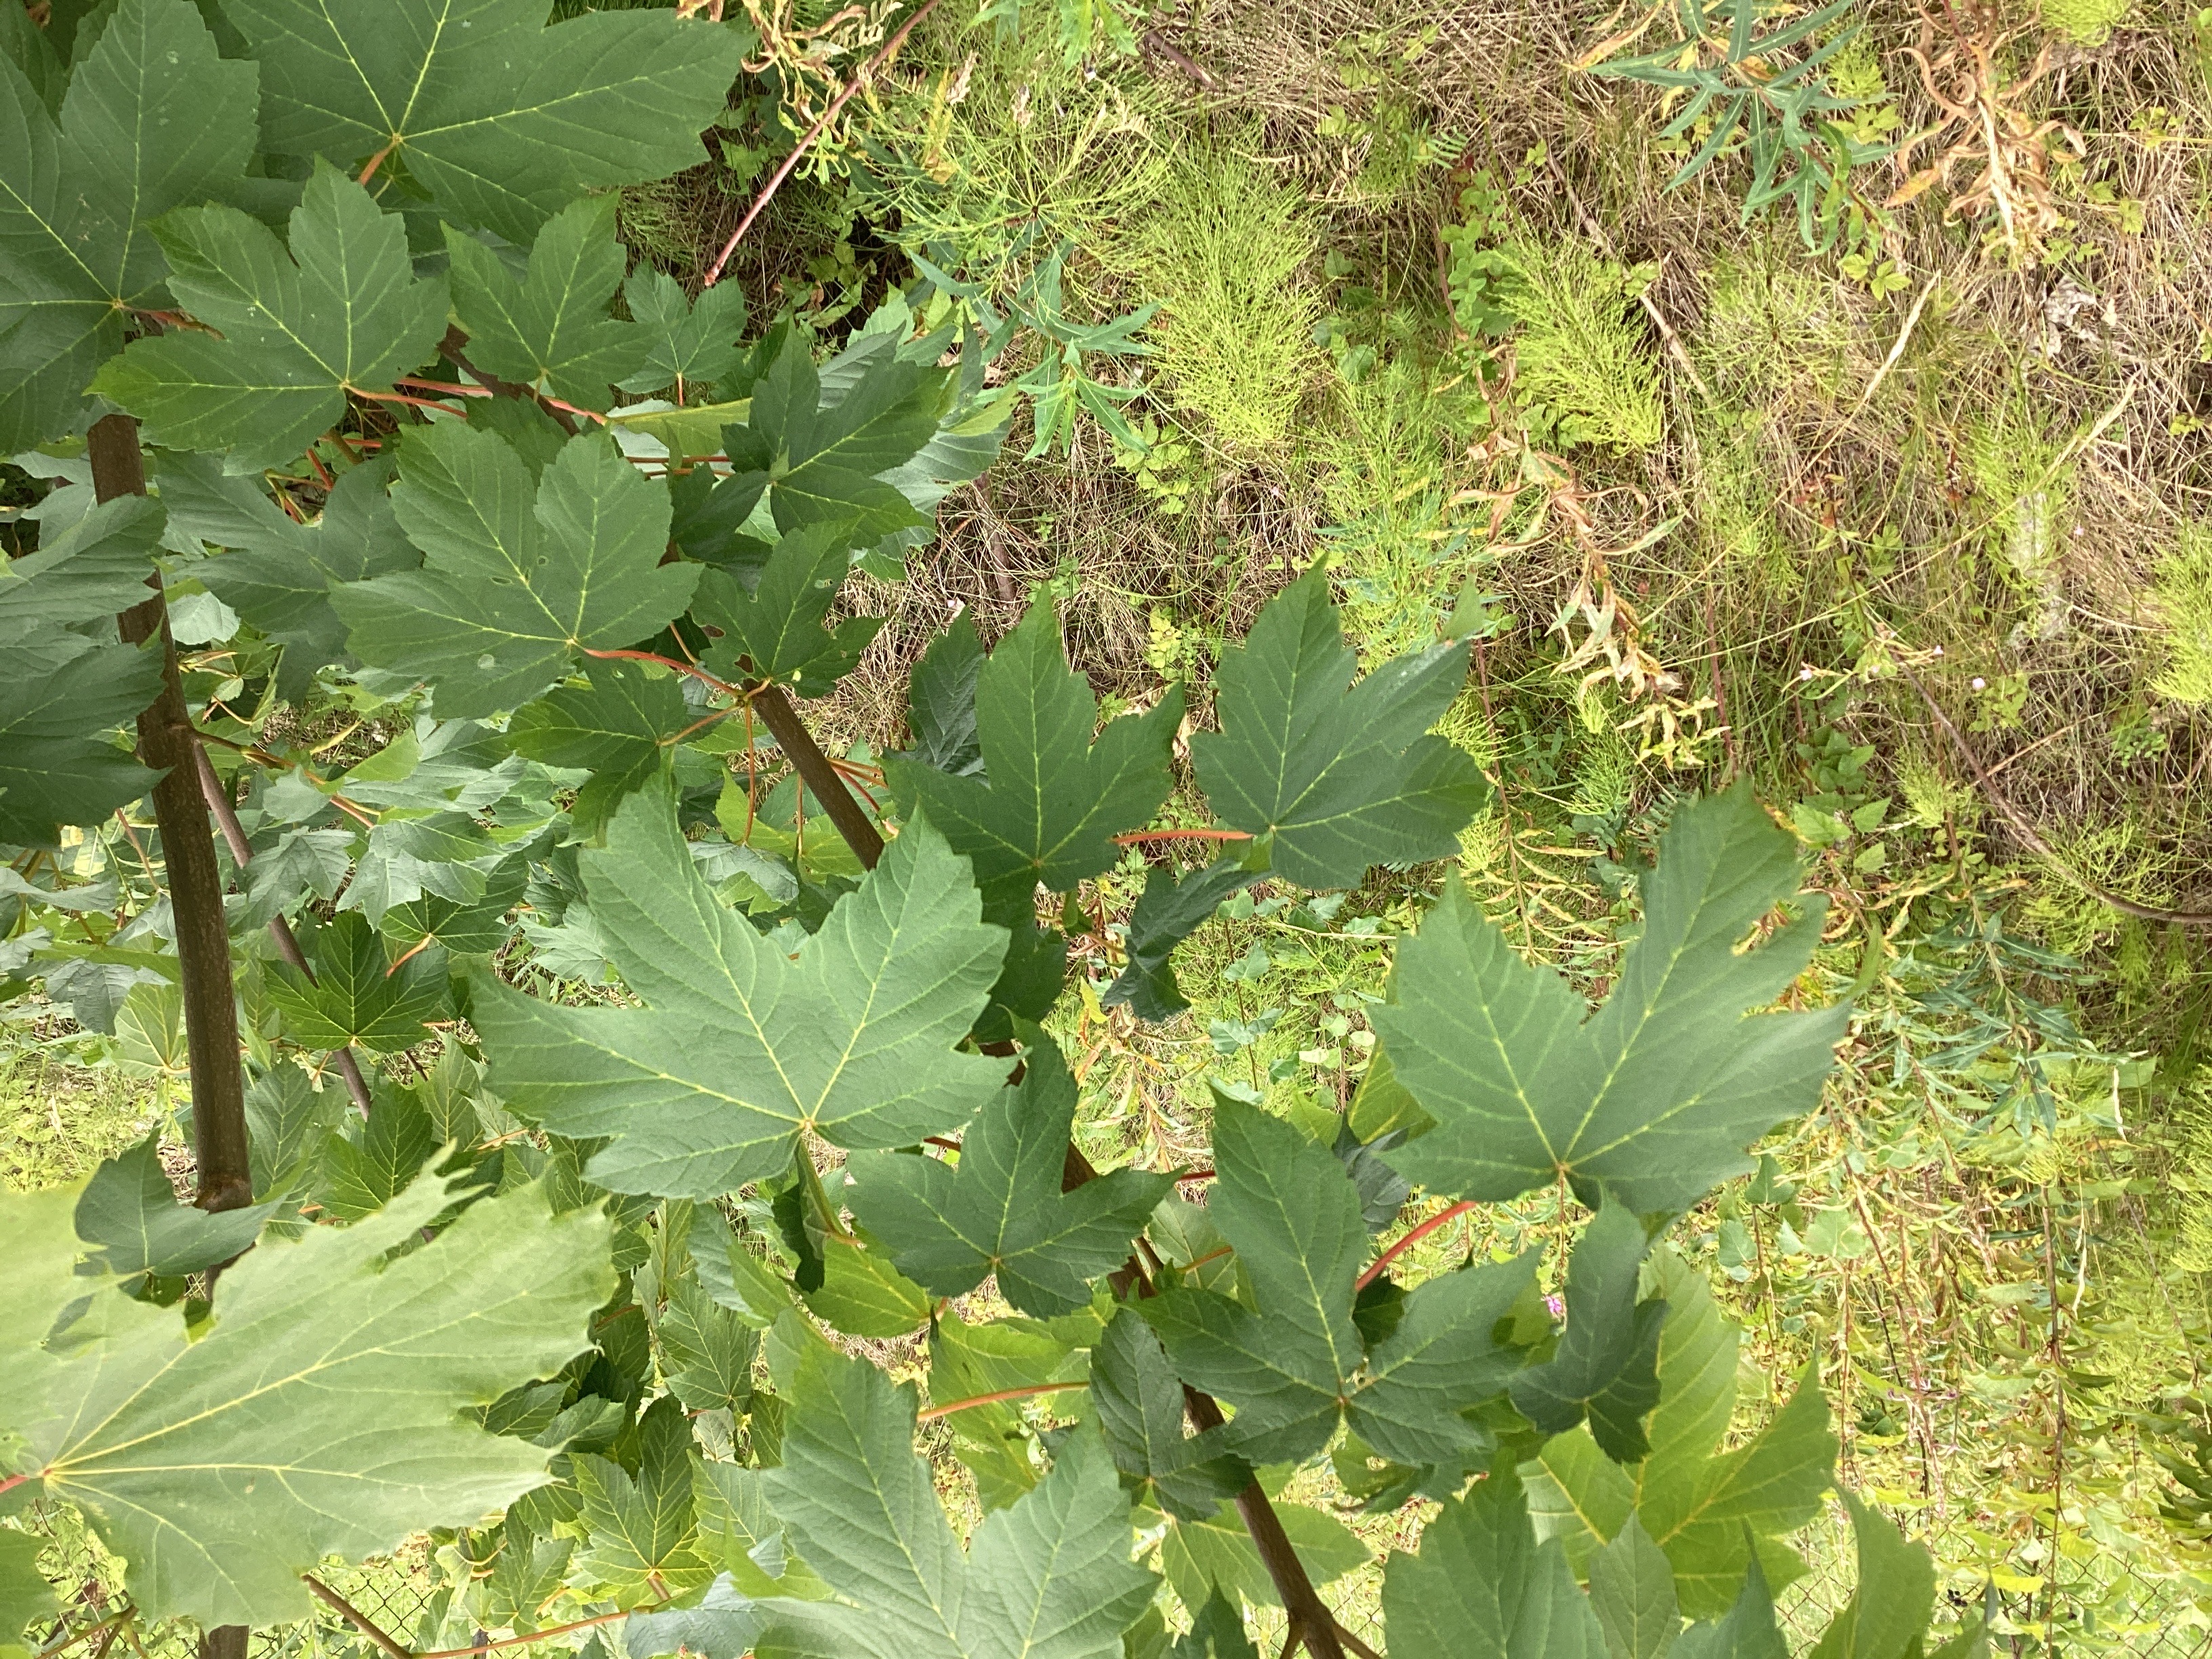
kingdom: Plantae
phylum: Tracheophyta
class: Magnoliopsida
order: Sapindales
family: Sapindaceae
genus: Acer
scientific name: Acer pseudoplatanus
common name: platanlønn
